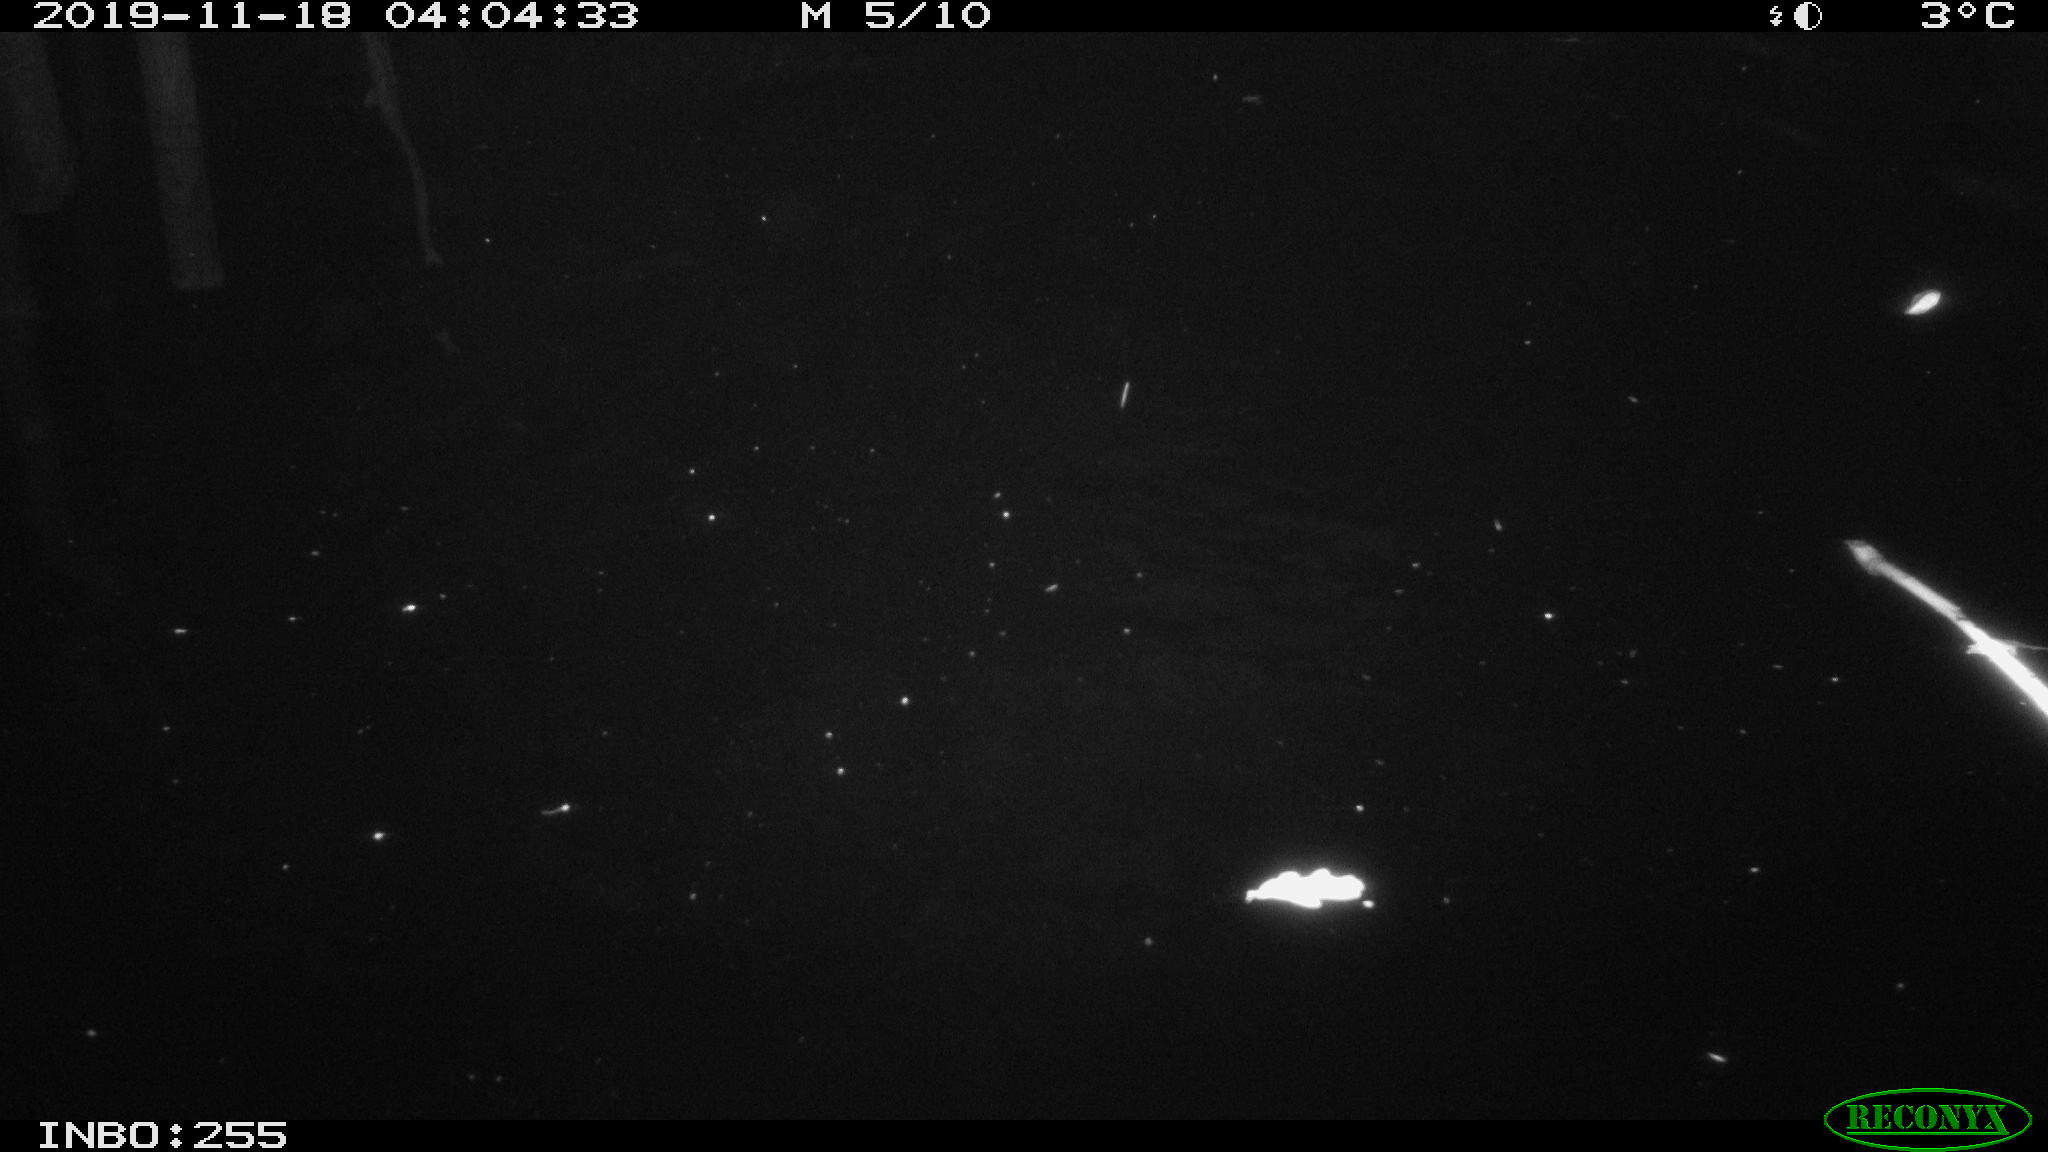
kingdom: Animalia
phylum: Chordata
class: Mammalia
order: Rodentia
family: Cricetidae
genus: Ondatra
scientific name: Ondatra zibethicus
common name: Muskrat
